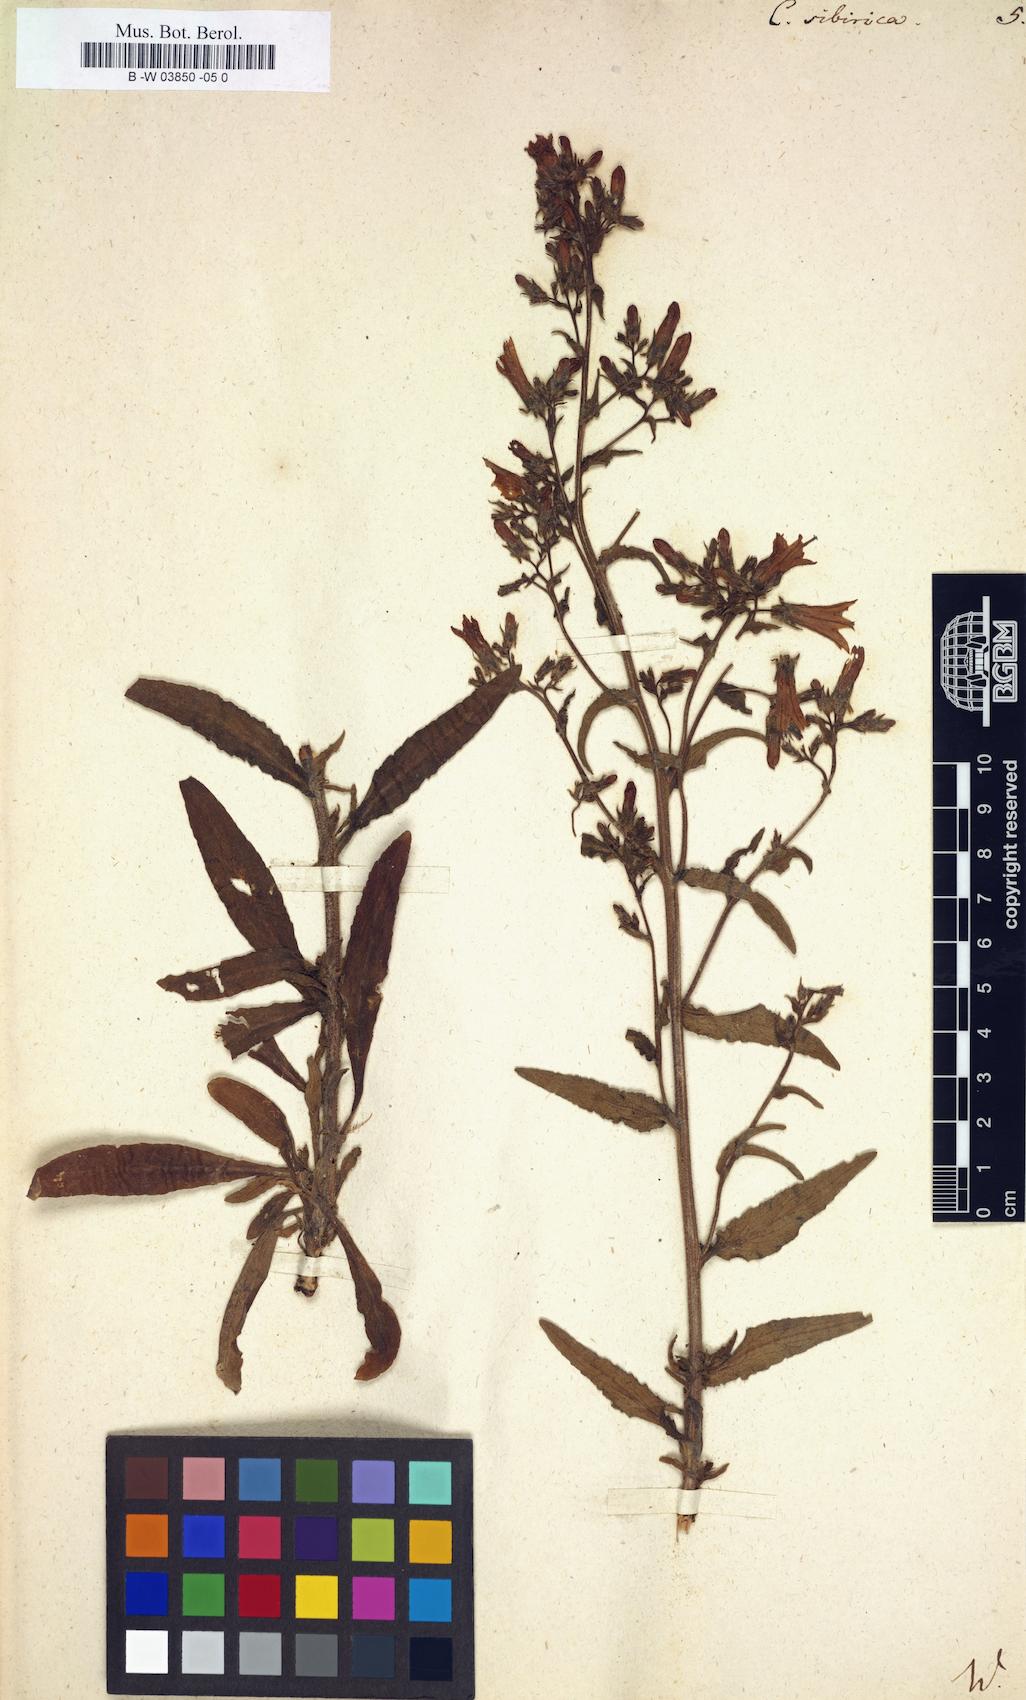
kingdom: Plantae
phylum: Tracheophyta
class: Magnoliopsida
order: Asterales
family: Campanulaceae
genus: Campanula
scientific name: Campanula sibirica
